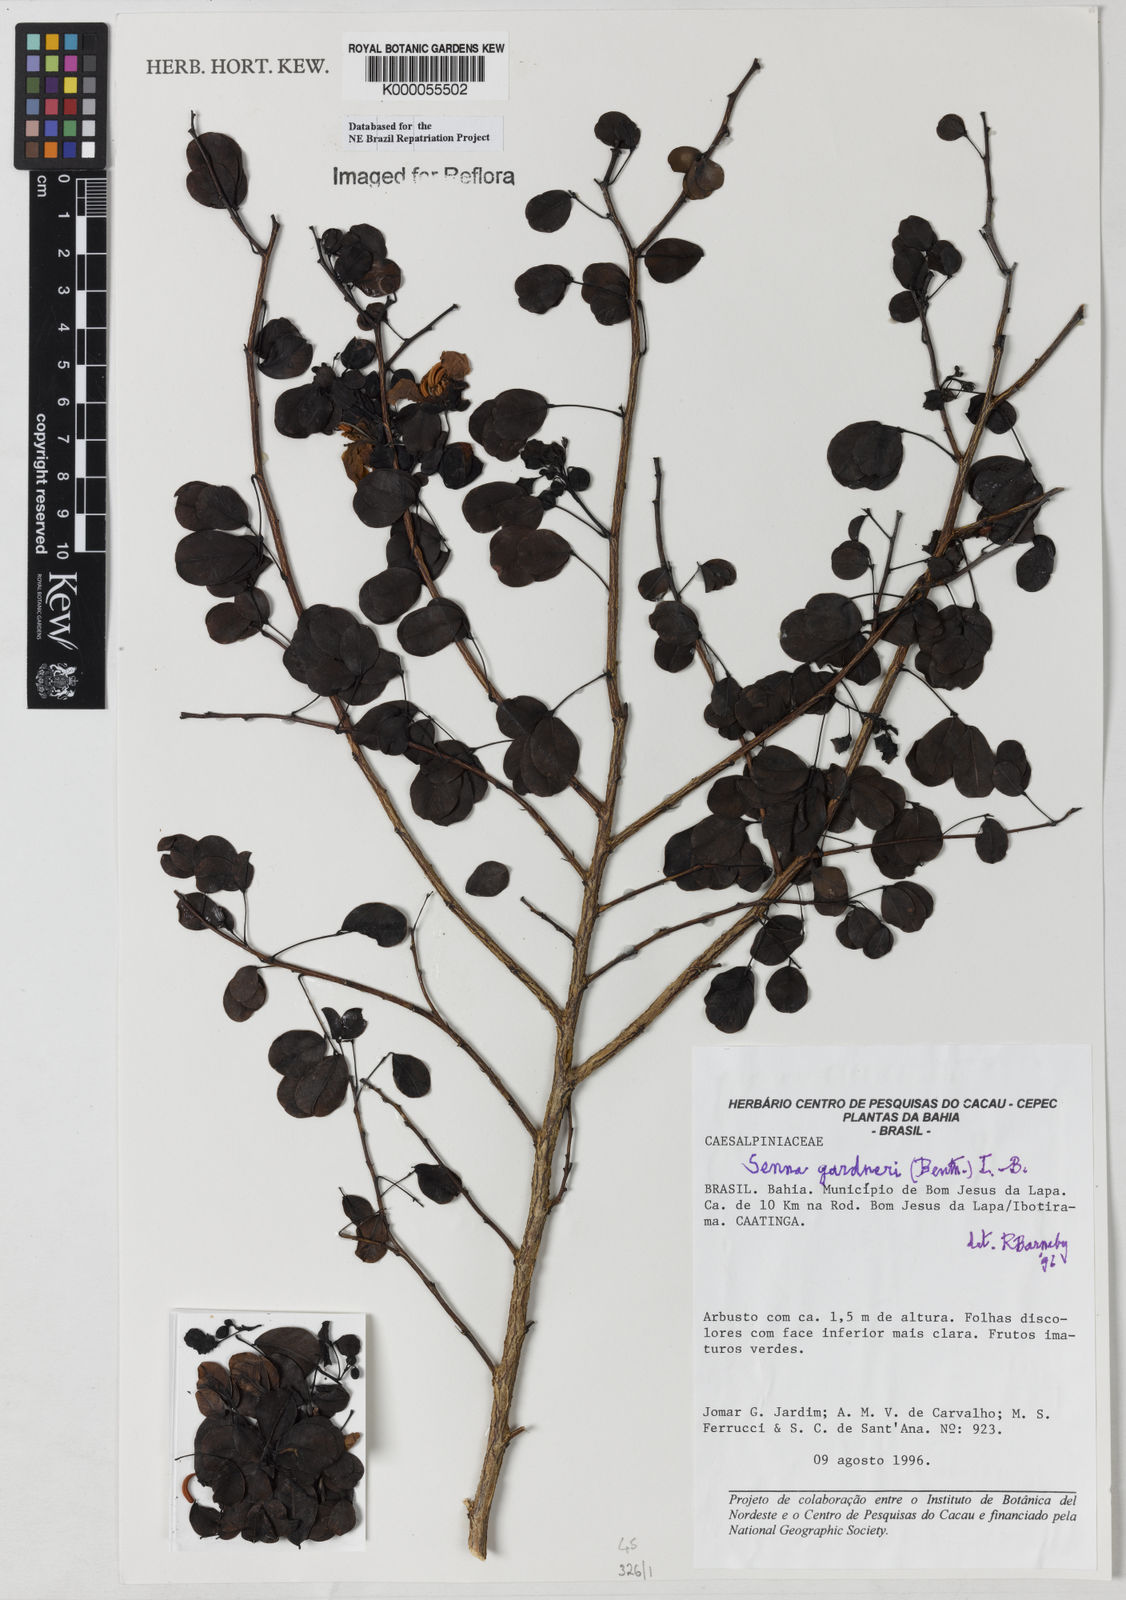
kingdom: Plantae
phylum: Tracheophyta
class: Magnoliopsida
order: Fabales
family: Fabaceae
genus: Senna
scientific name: Senna gardneri
